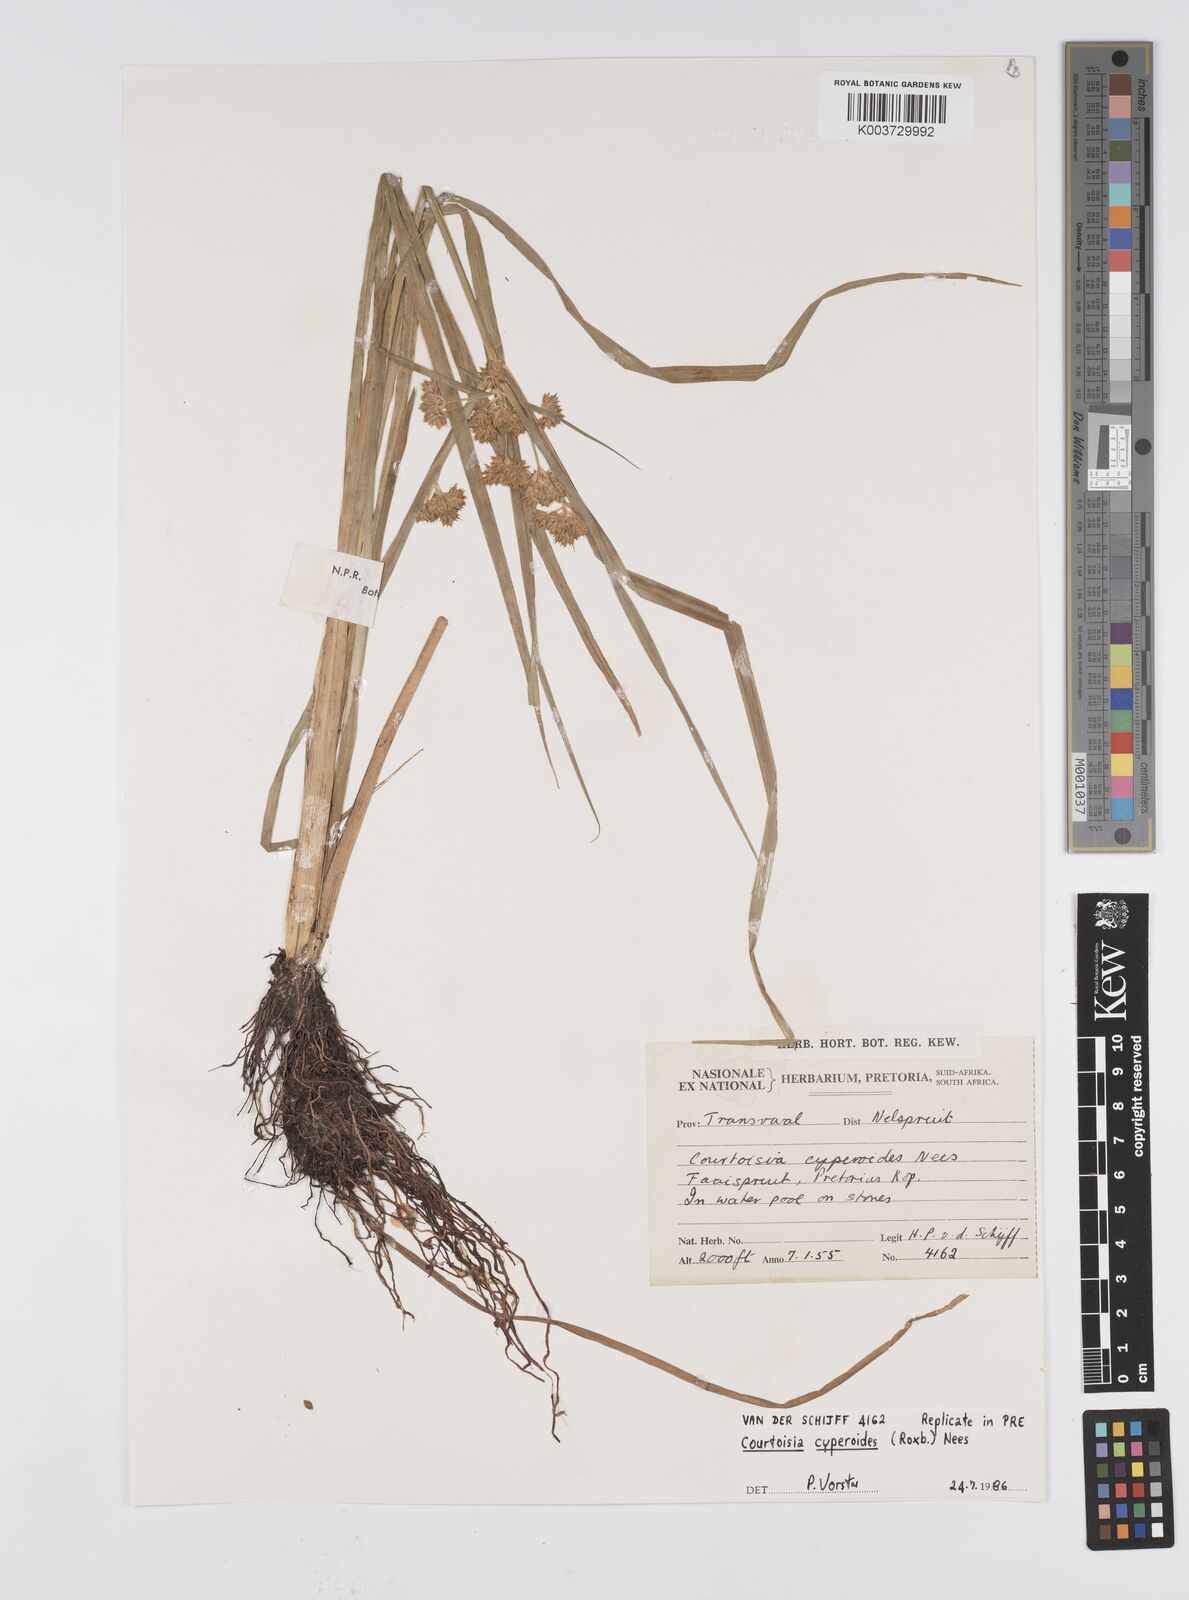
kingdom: Plantae
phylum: Tracheophyta
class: Liliopsida
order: Poales
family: Cyperaceae
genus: Cyperus
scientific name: Cyperus cyperoides
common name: Pacific island flat sedge
